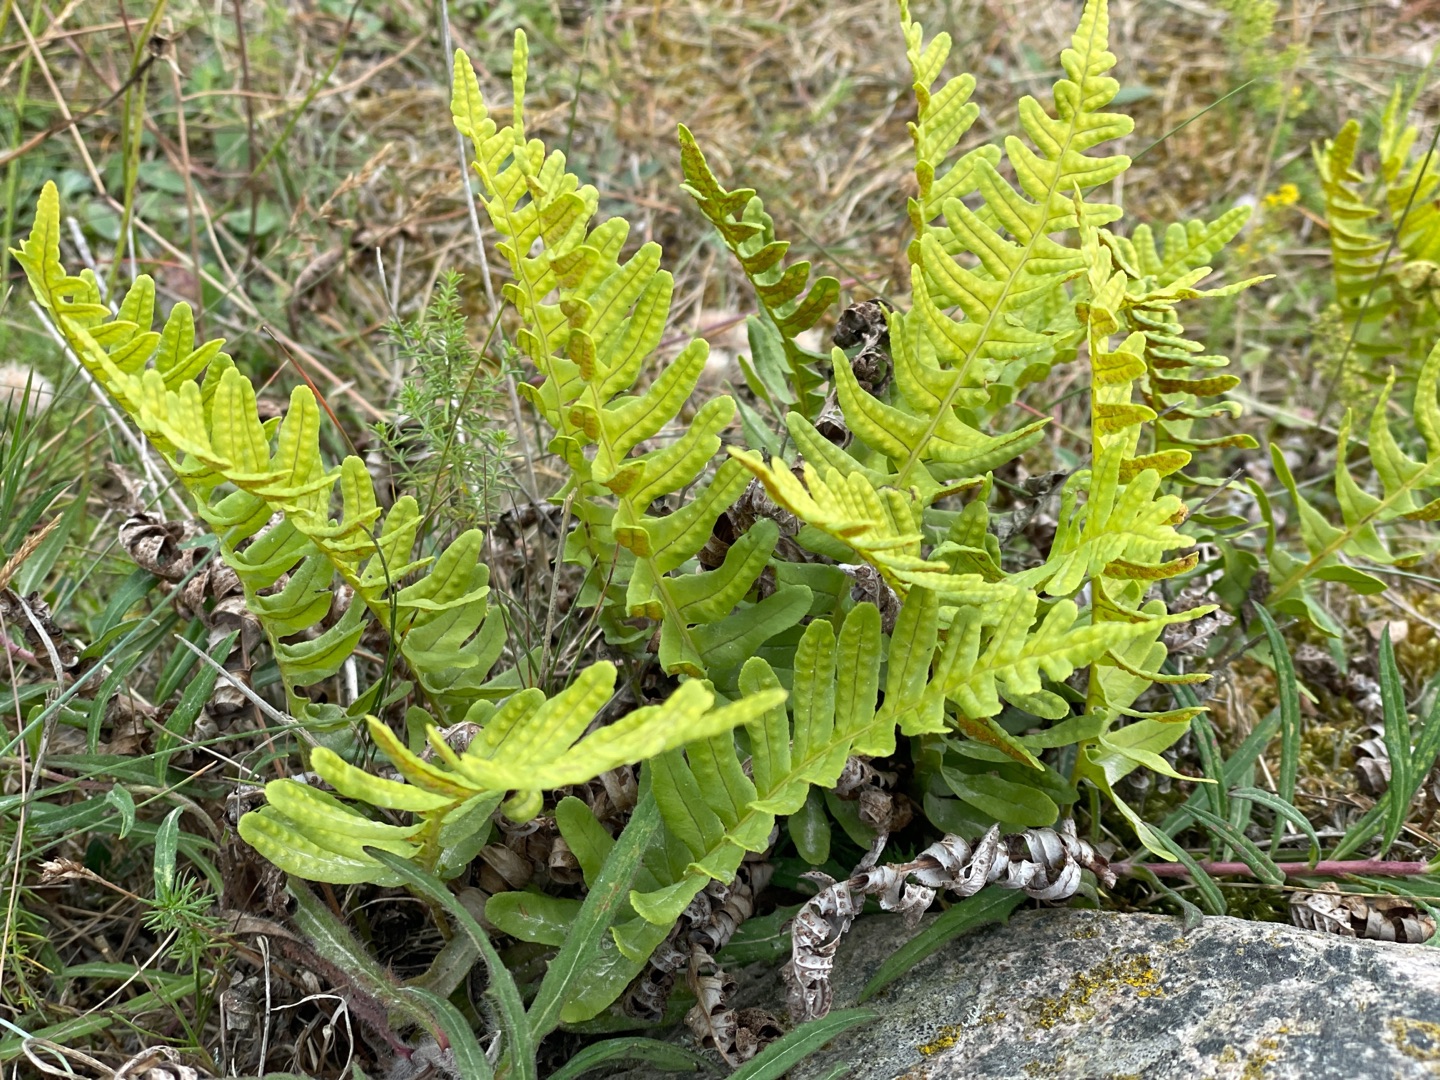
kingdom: Plantae
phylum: Tracheophyta
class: Polypodiopsida
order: Polypodiales
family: Polypodiaceae
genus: Polypodium
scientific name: Polypodium vulgare
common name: Almindelig engelsød
